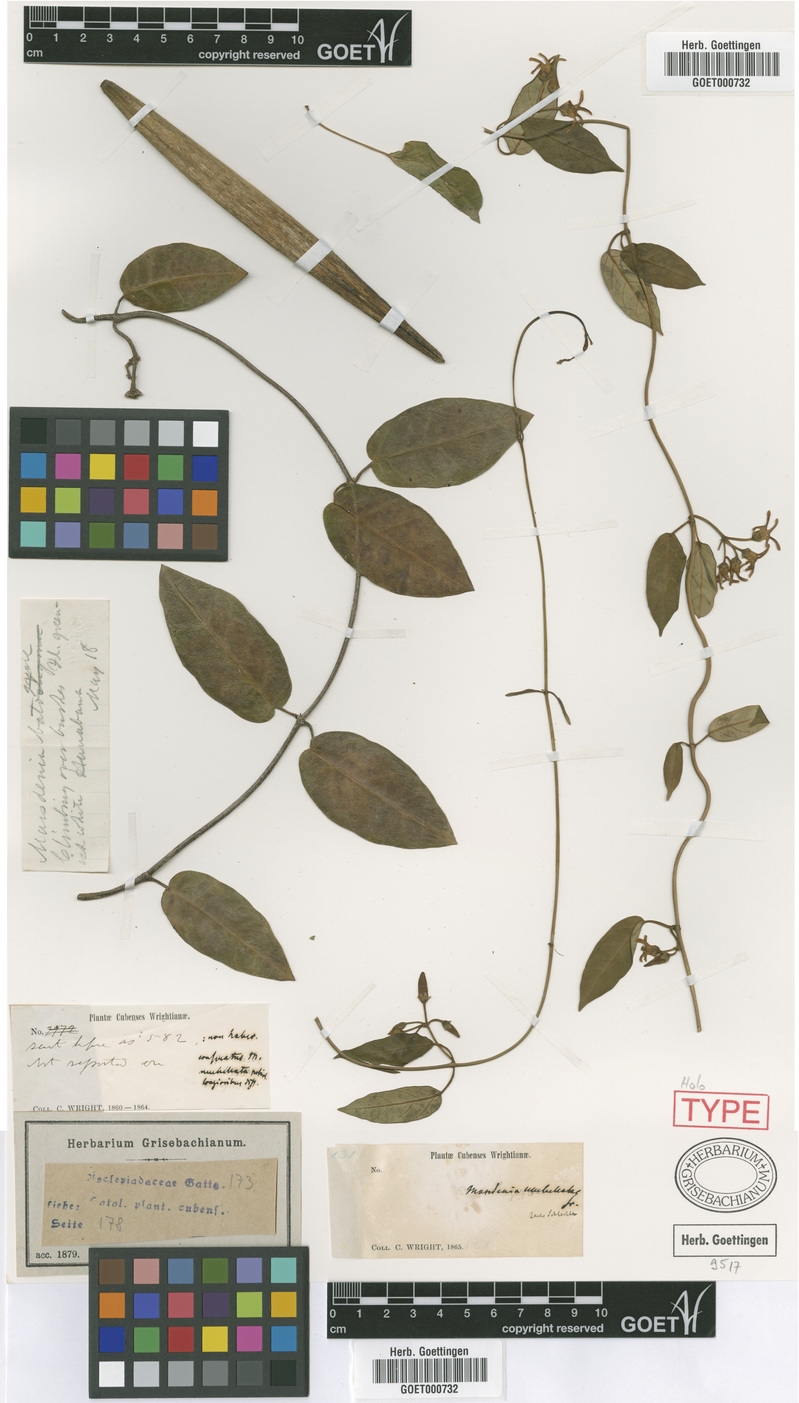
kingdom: Plantae
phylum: Tracheophyta
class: Magnoliopsida
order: Gentianales
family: Apocynaceae
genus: Ruehssia
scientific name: Ruehssia cubensis
